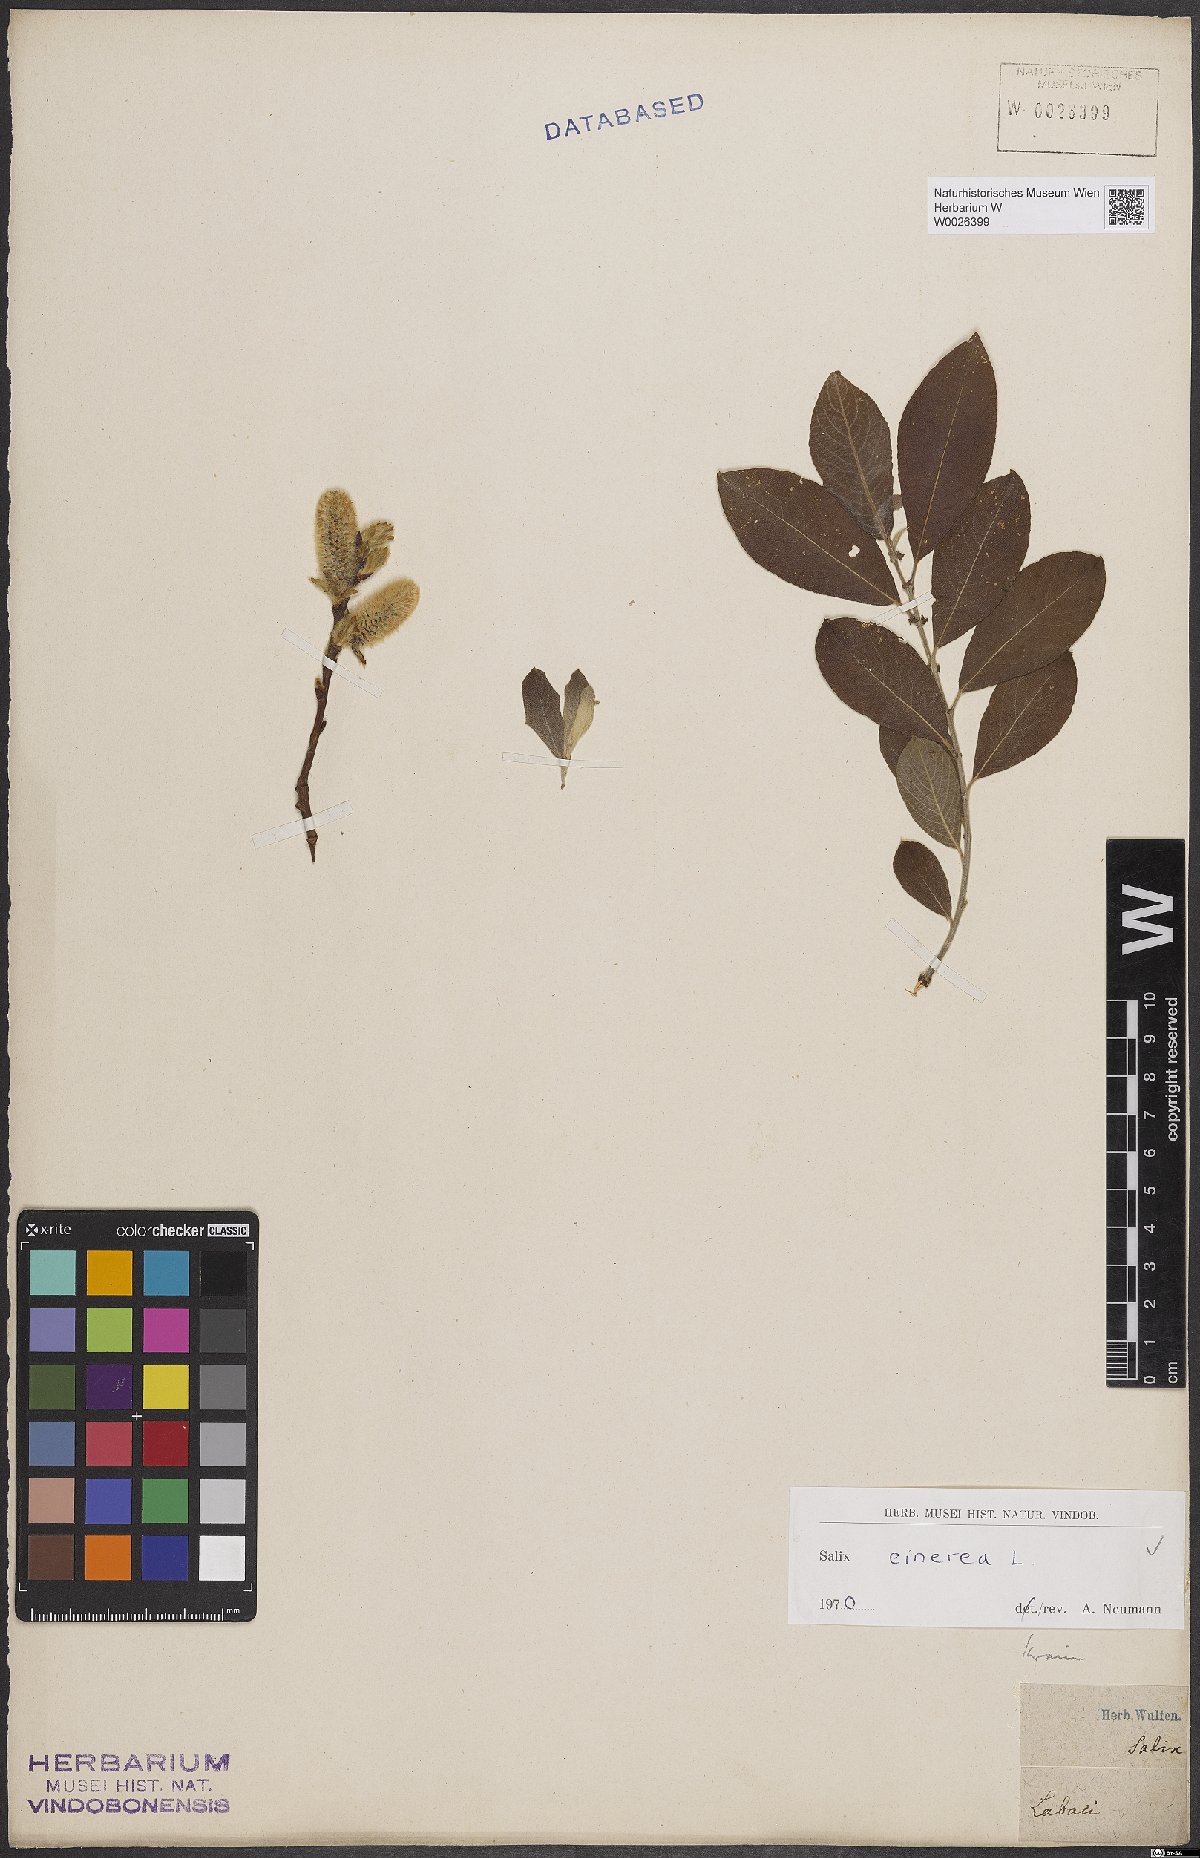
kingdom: Plantae
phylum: Tracheophyta
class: Magnoliopsida
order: Malpighiales
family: Salicaceae
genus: Salix
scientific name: Salix cinerea
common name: Common sallow
